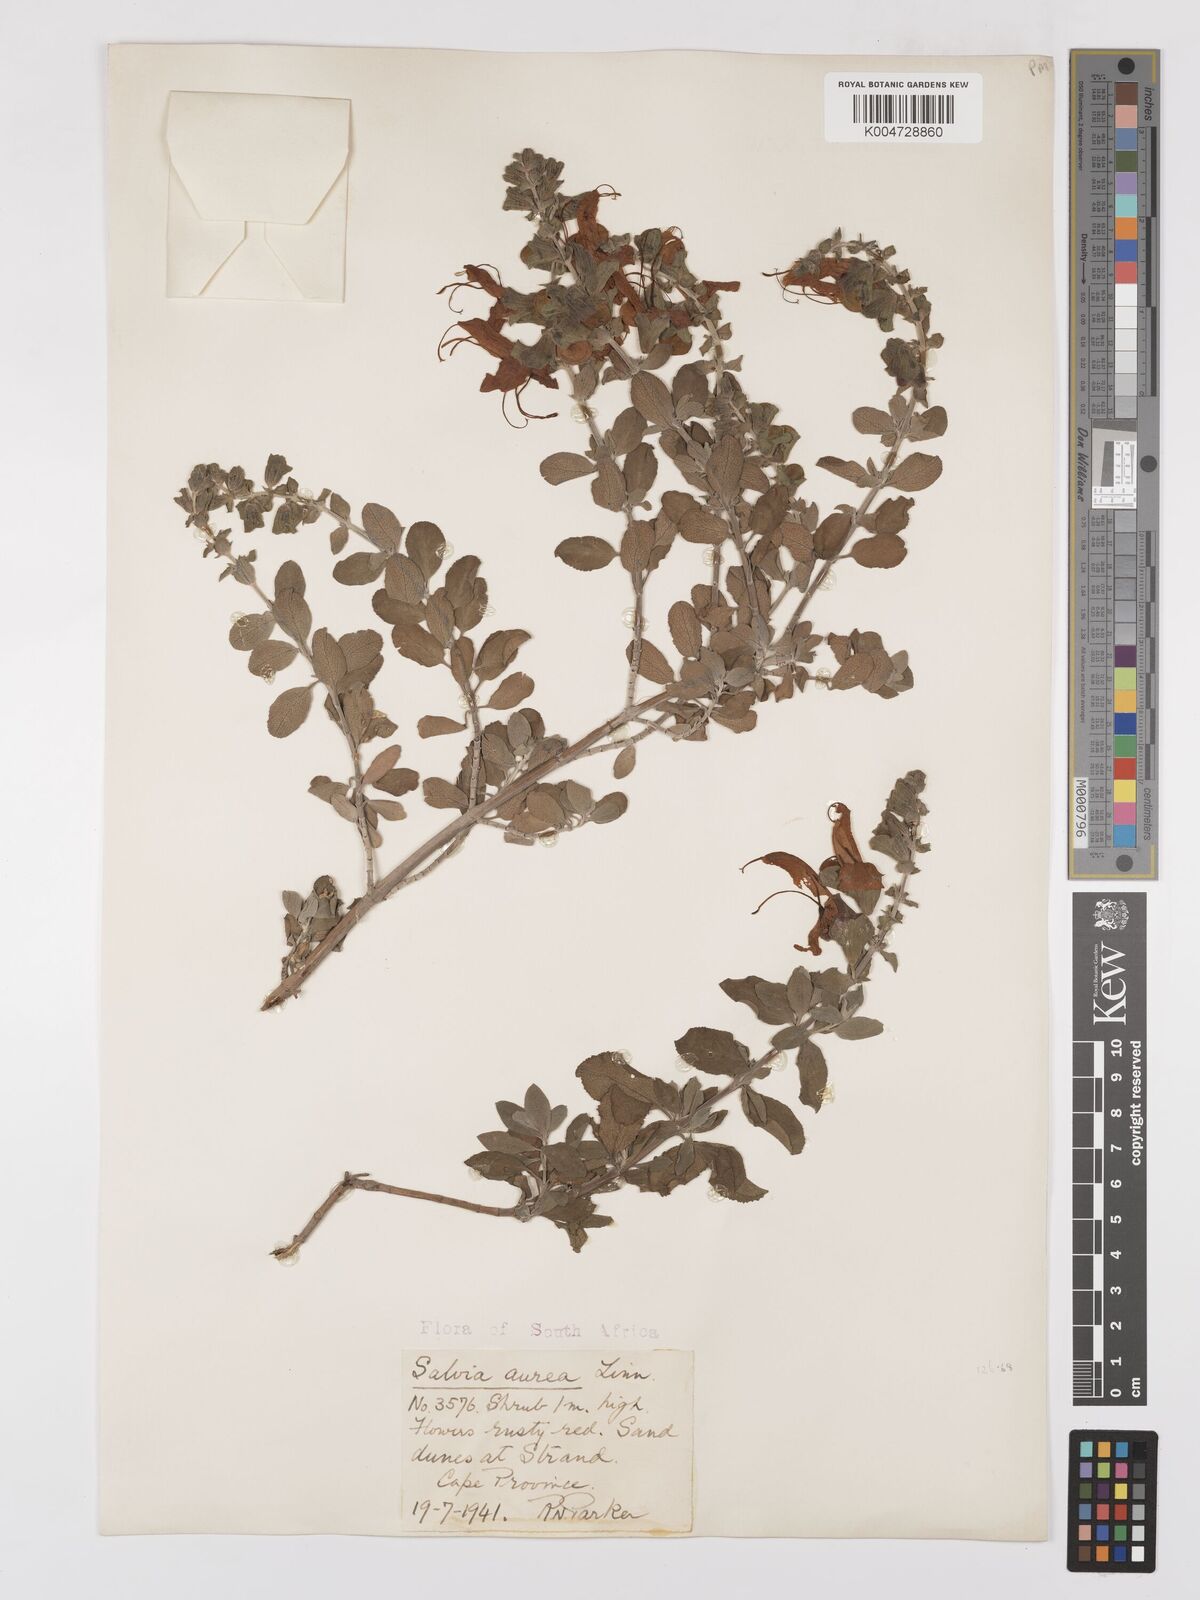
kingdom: Plantae
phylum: Tracheophyta
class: Magnoliopsida
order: Lamiales
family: Lamiaceae
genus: Salvia
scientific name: Salvia aurea
